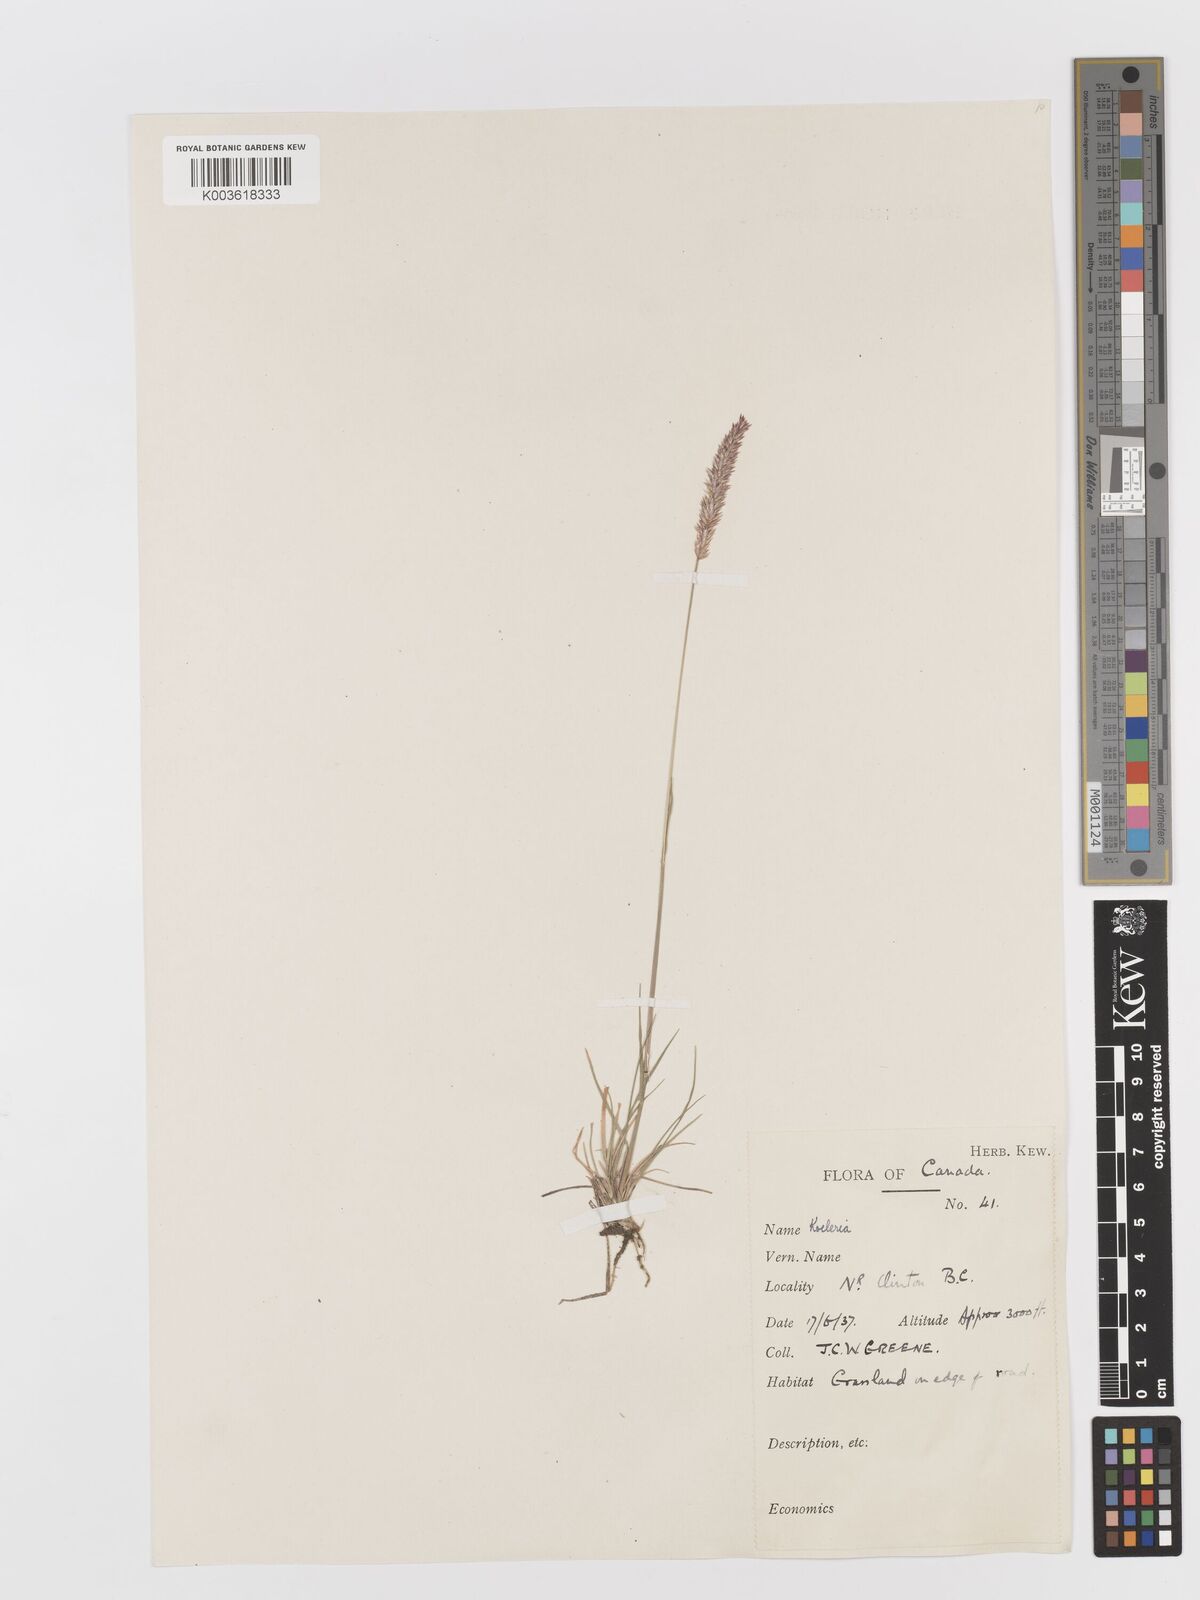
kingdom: Plantae
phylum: Tracheophyta
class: Liliopsida
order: Poales
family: Poaceae
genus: Koeleria
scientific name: Koeleria
